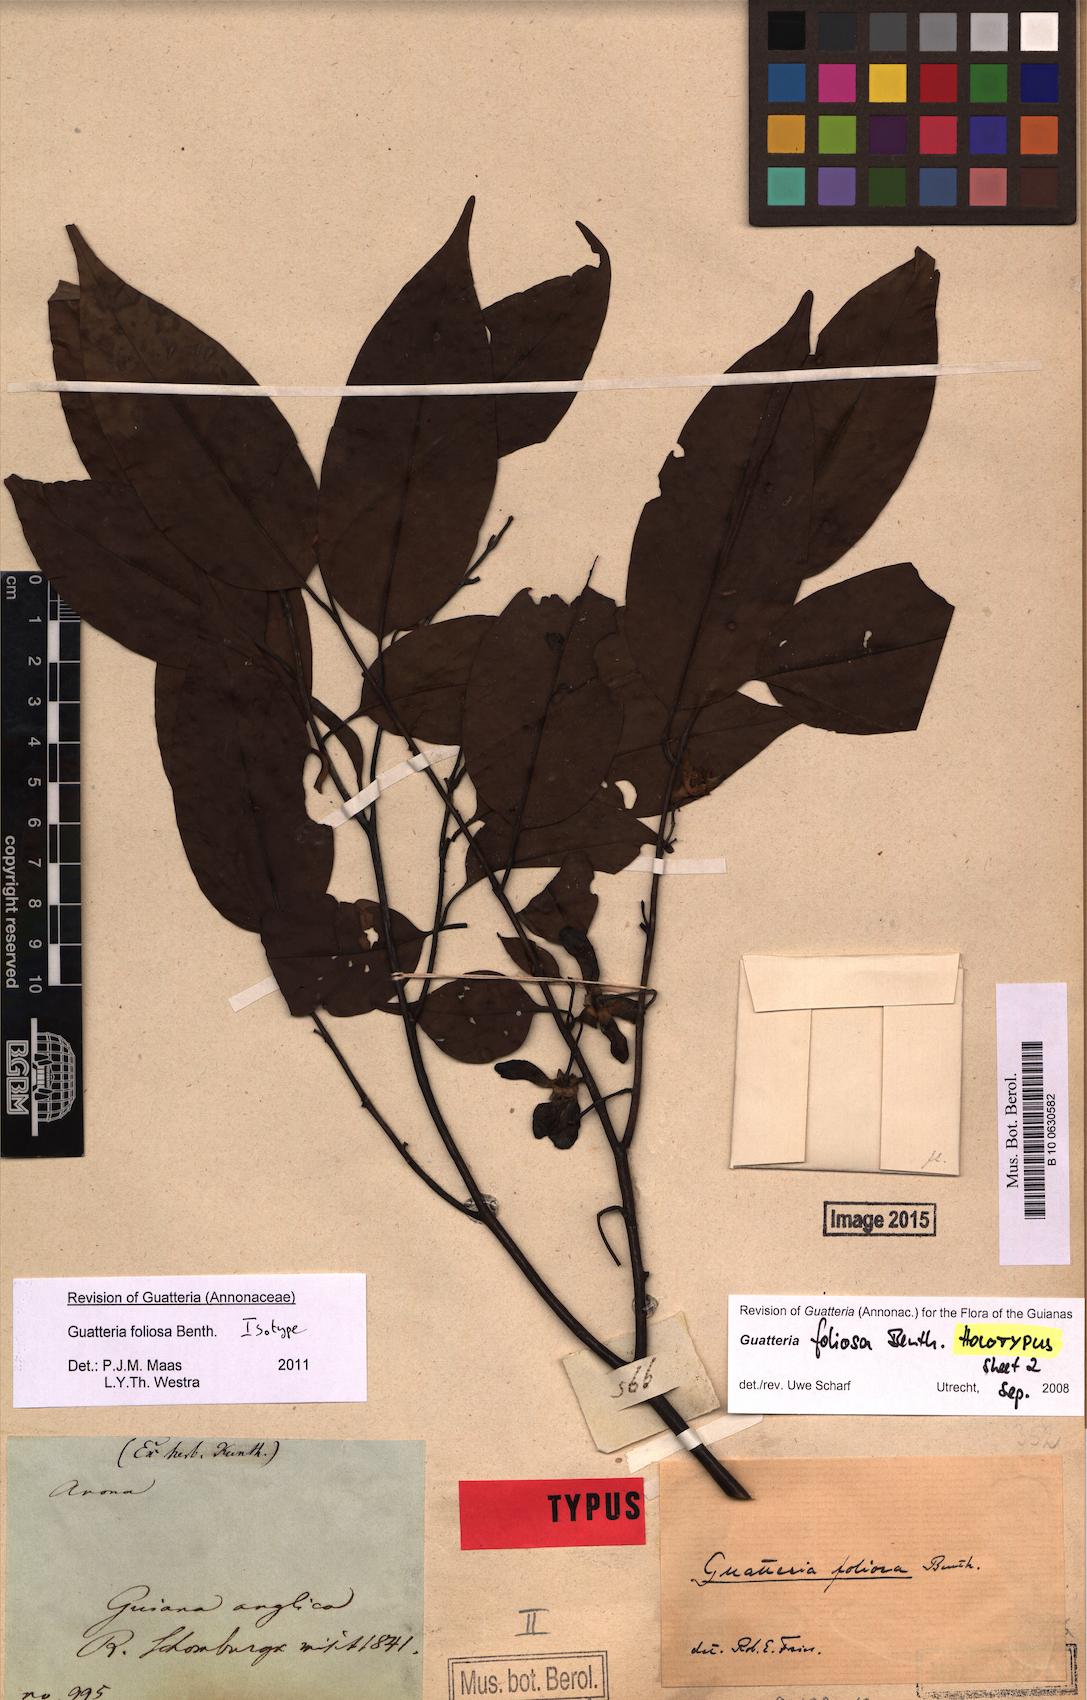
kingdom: Plantae
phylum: Tracheophyta
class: Magnoliopsida
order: Magnoliales
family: Annonaceae
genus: Guatteria
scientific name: Guatteria foliosa
